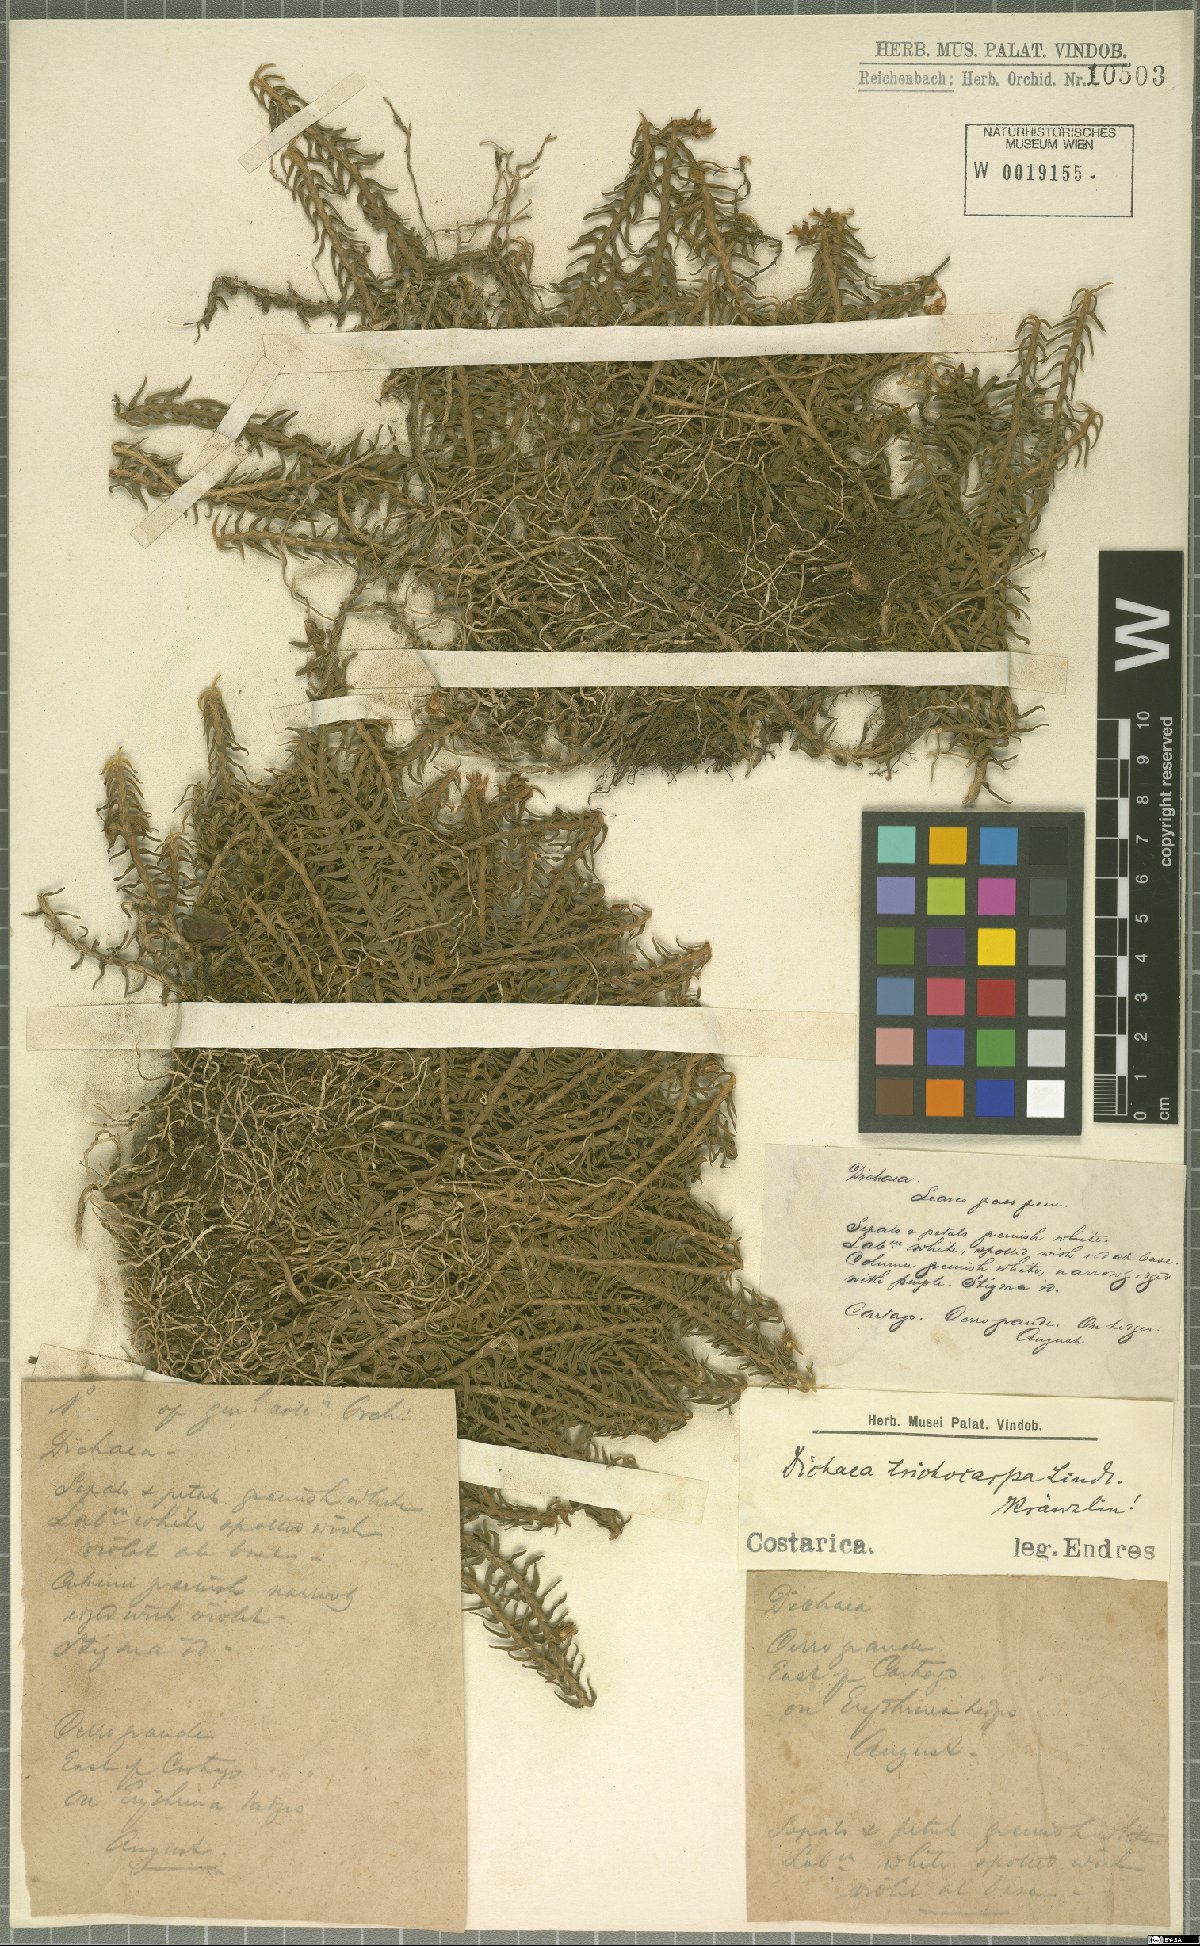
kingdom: Plantae
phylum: Tracheophyta
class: Liliopsida
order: Asparagales
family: Orchidaceae
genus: Dichaea
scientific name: Dichaea trichocarpa
